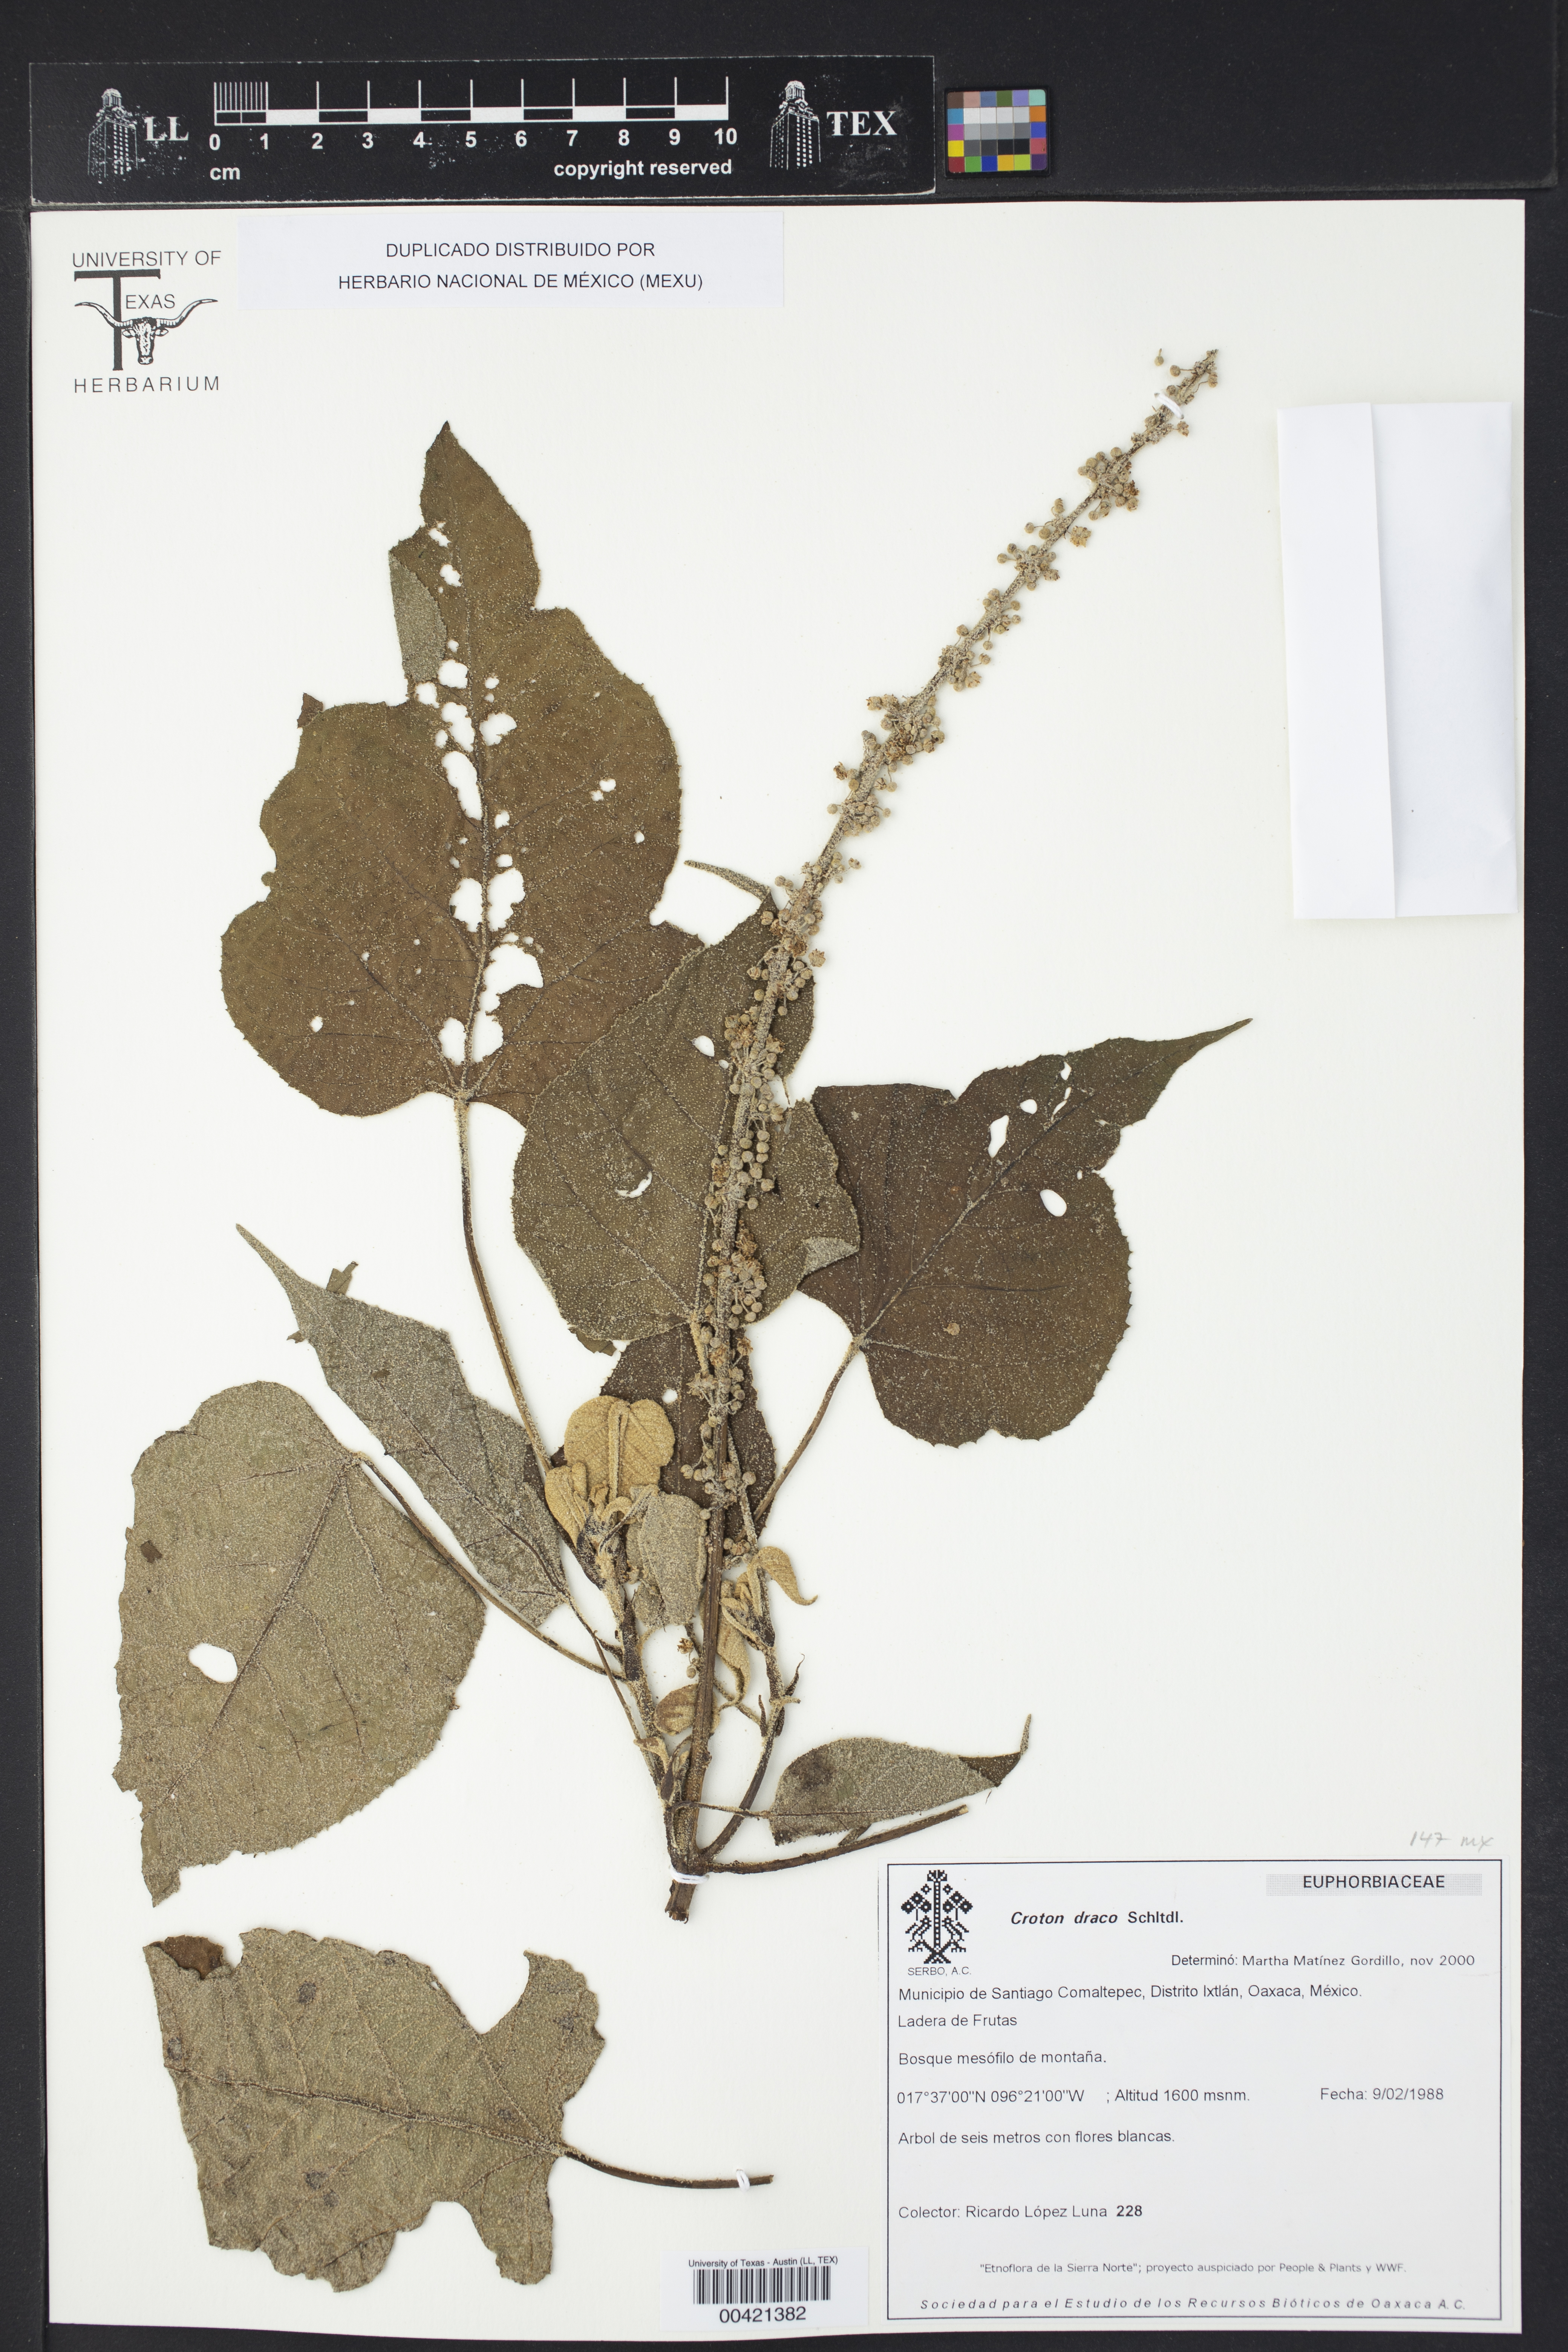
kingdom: Plantae
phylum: Tracheophyta
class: Magnoliopsida
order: Malpighiales
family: Euphorbiaceae
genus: Croton
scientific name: Croton draco
